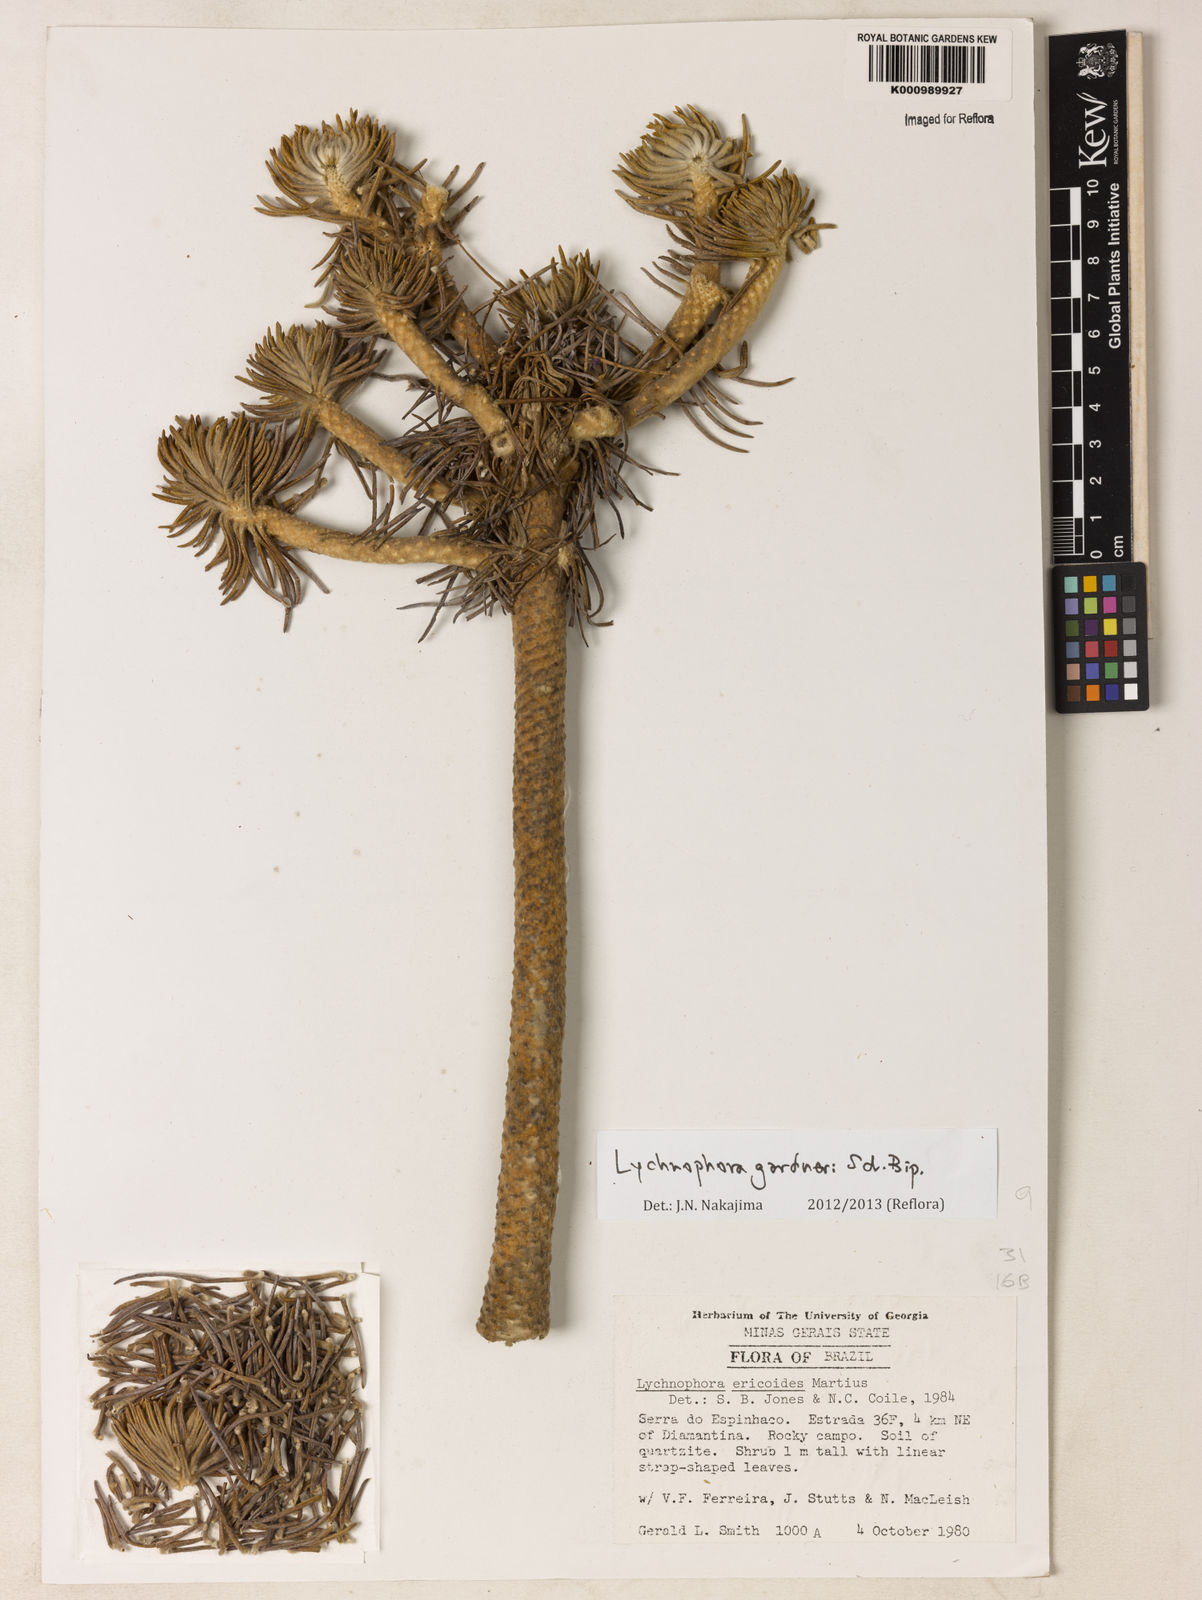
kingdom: Plantae
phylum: Tracheophyta
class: Magnoliopsida
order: Asterales
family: Asteraceae
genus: Lychnophora
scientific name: Lychnophora gardneri
